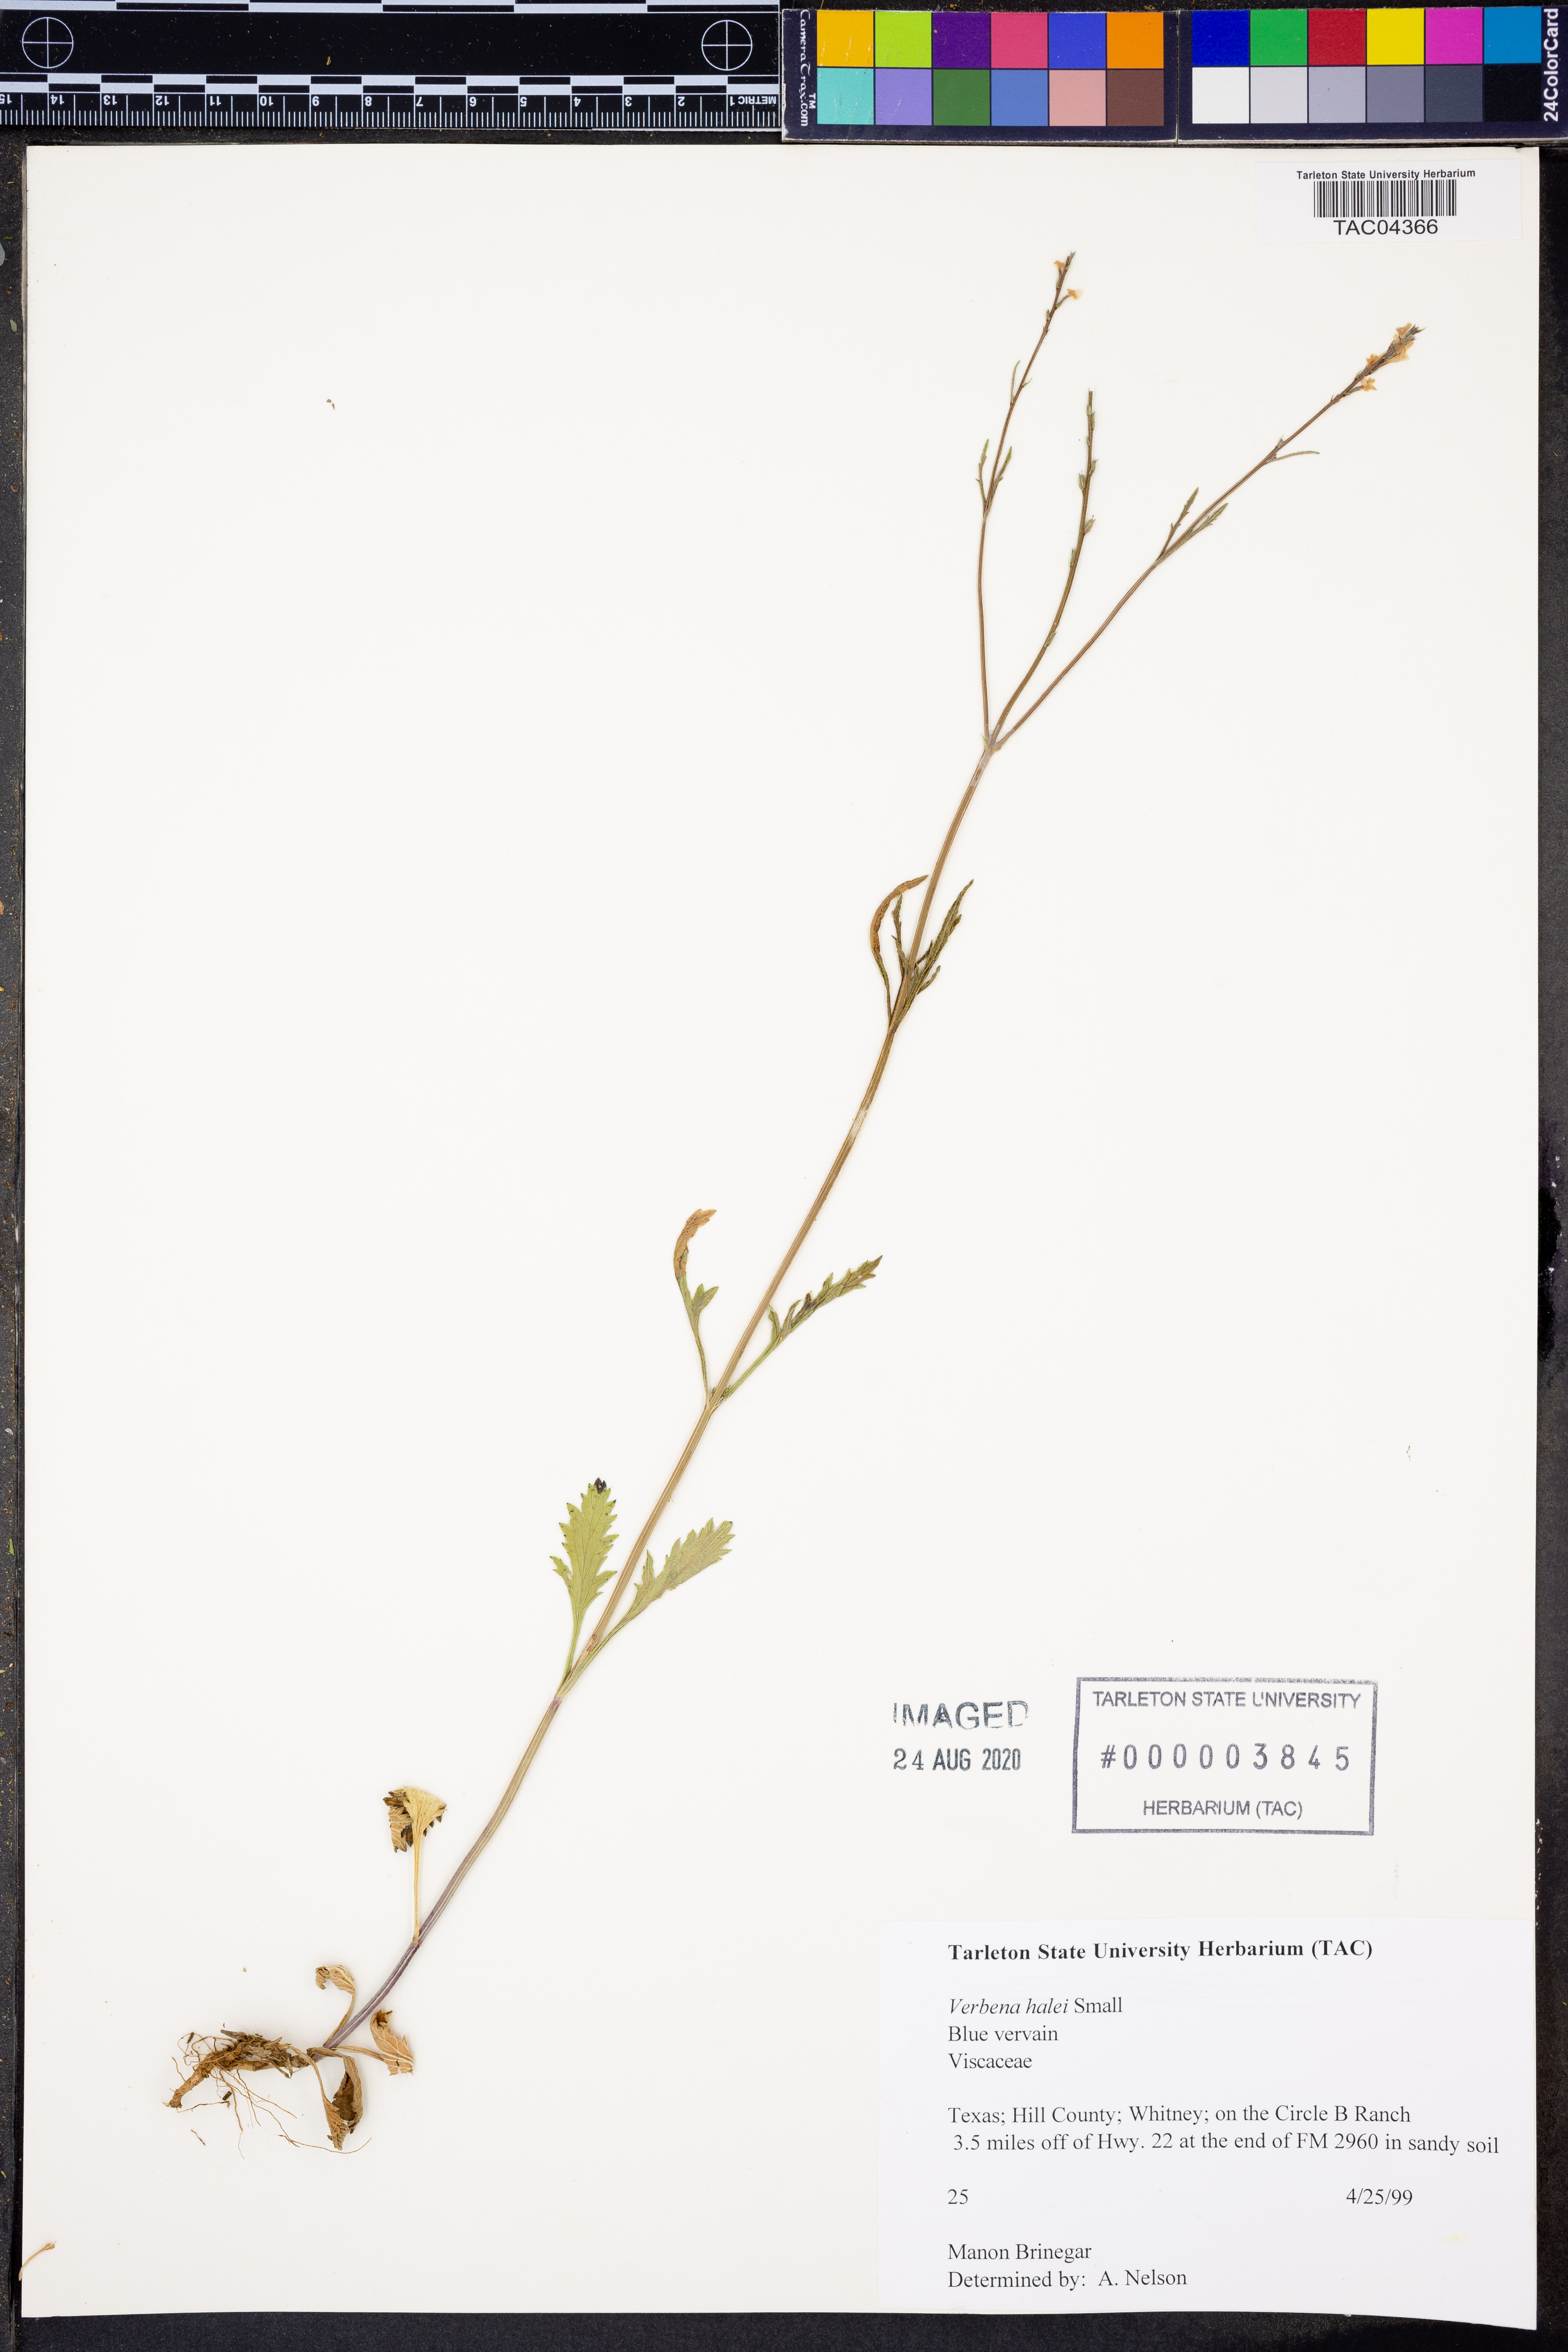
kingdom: Plantae
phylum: Tracheophyta
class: Magnoliopsida
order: Lamiales
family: Verbenaceae
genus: Verbena
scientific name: Verbena halei
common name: Texas vervain
